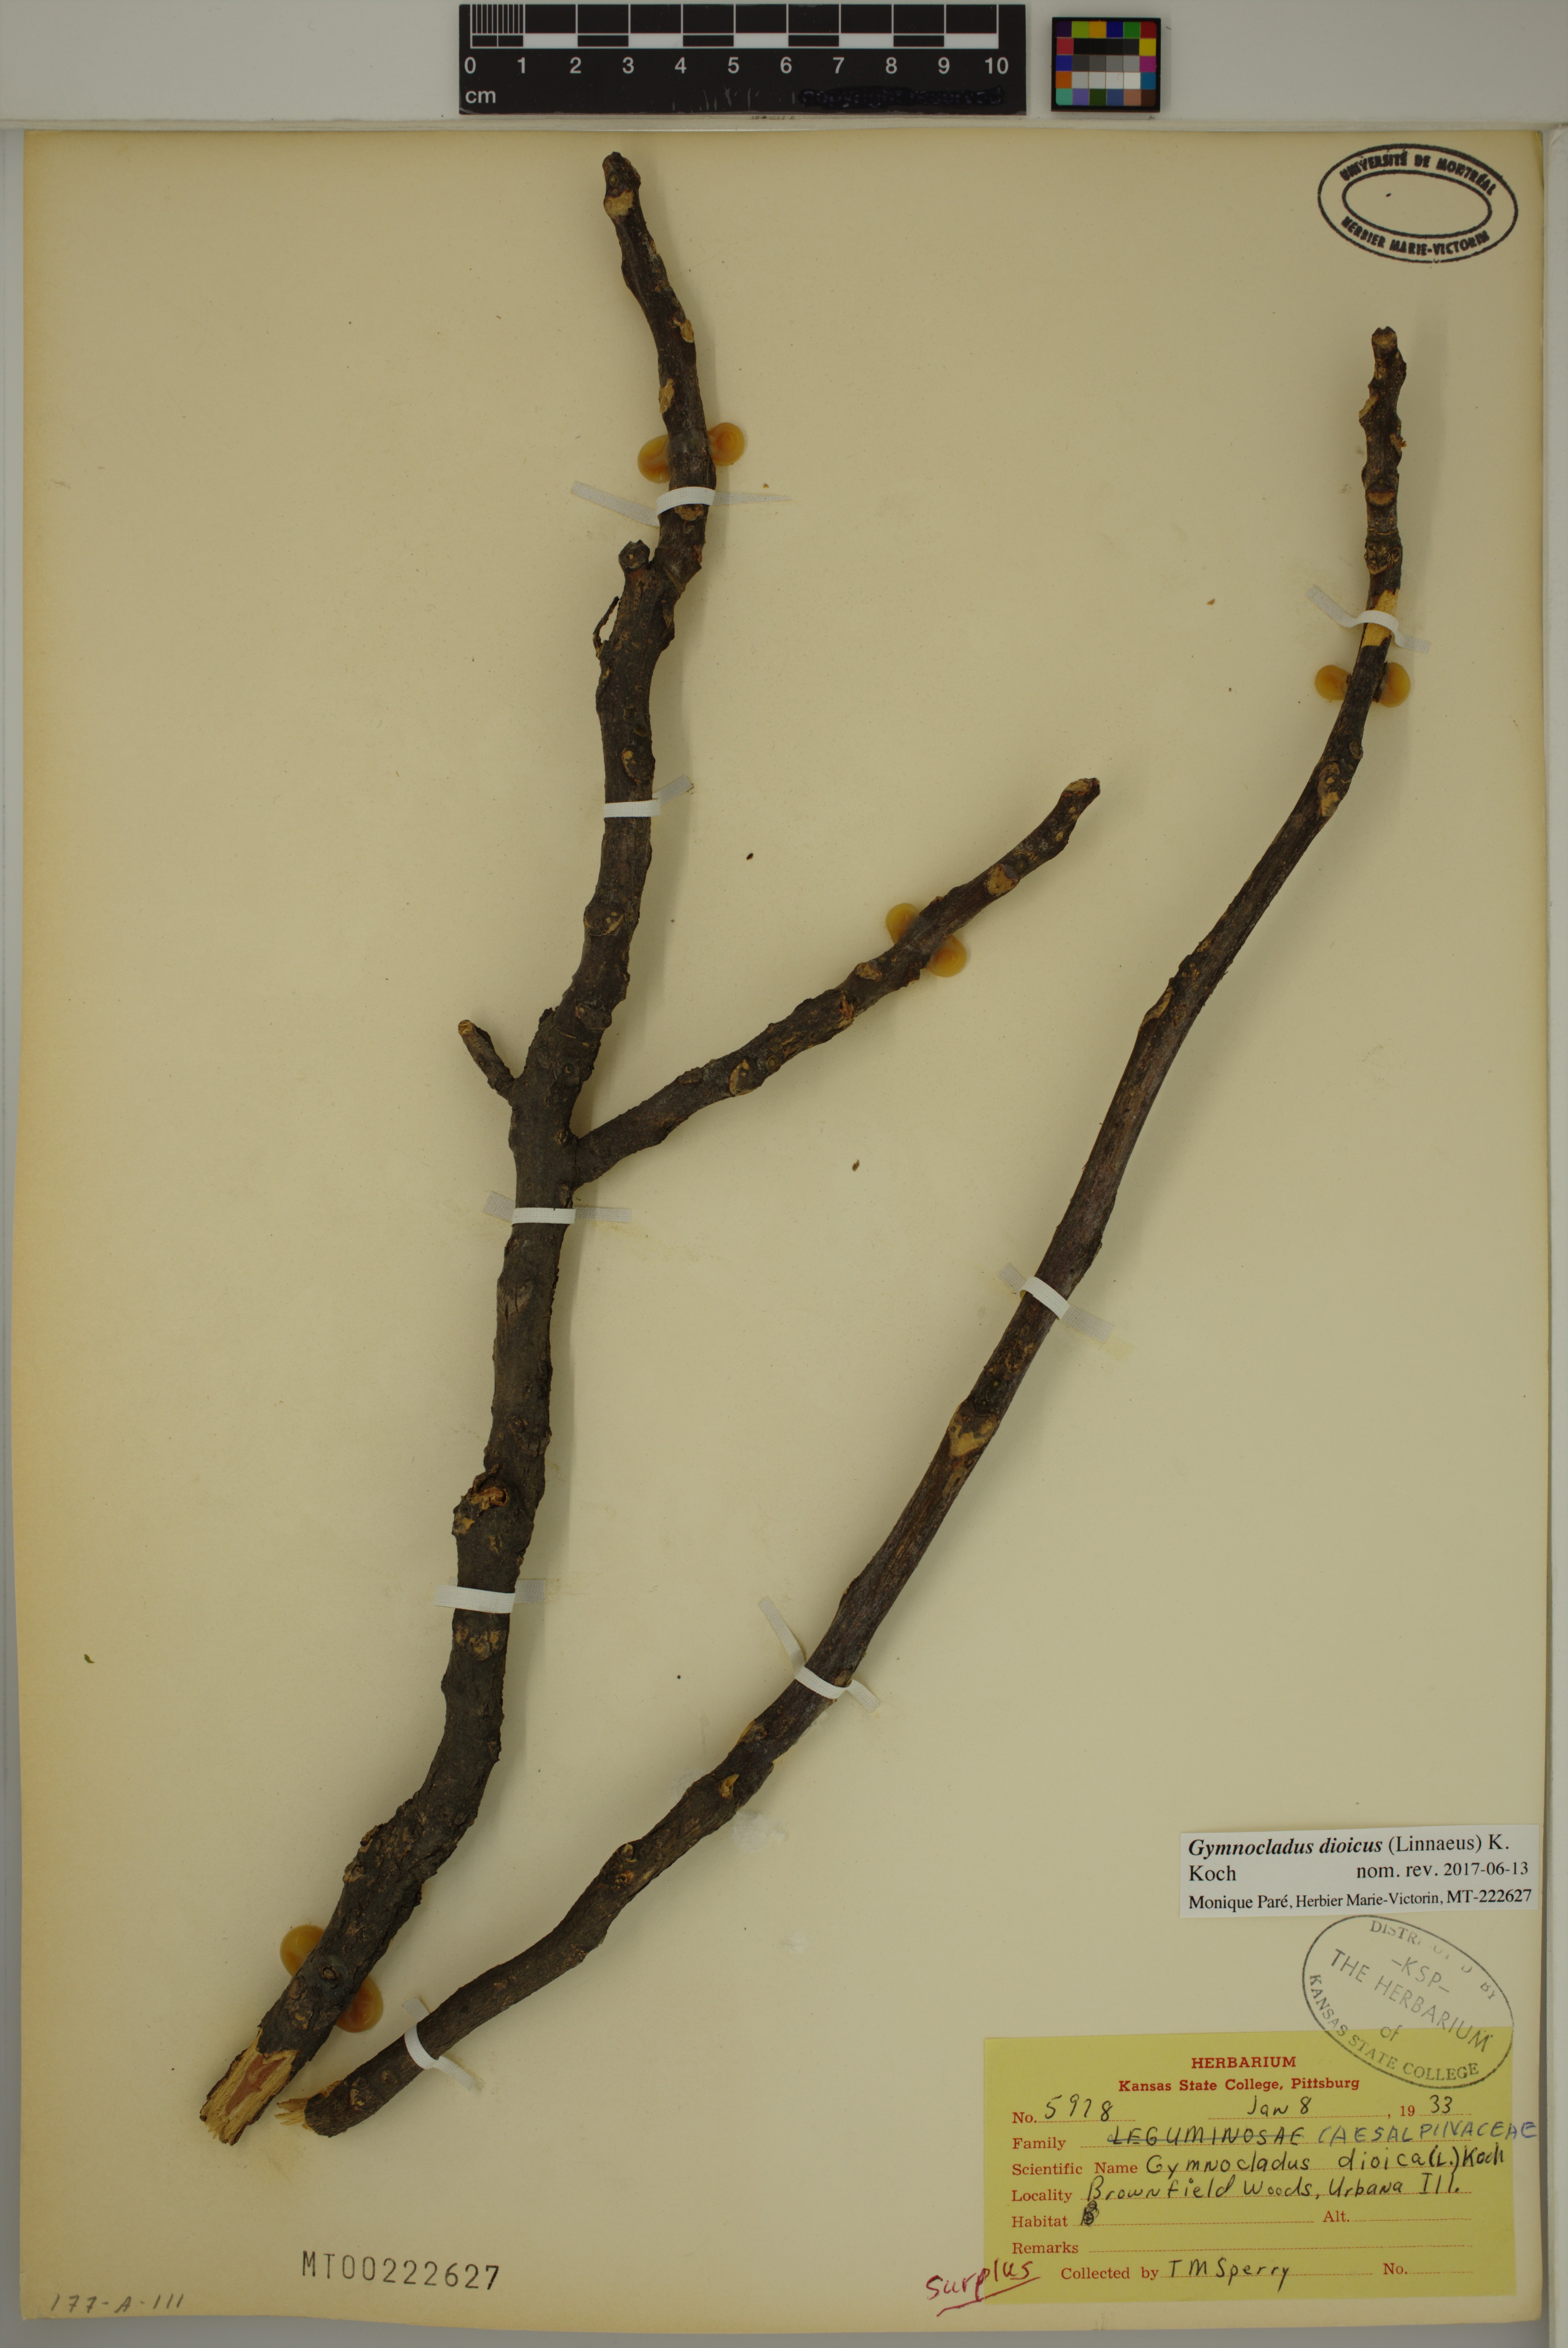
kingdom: Plantae
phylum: Tracheophyta
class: Magnoliopsida
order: Fabales
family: Fabaceae
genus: Gymnocladus
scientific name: Gymnocladus dioicus
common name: Kentucky coffee-tree
